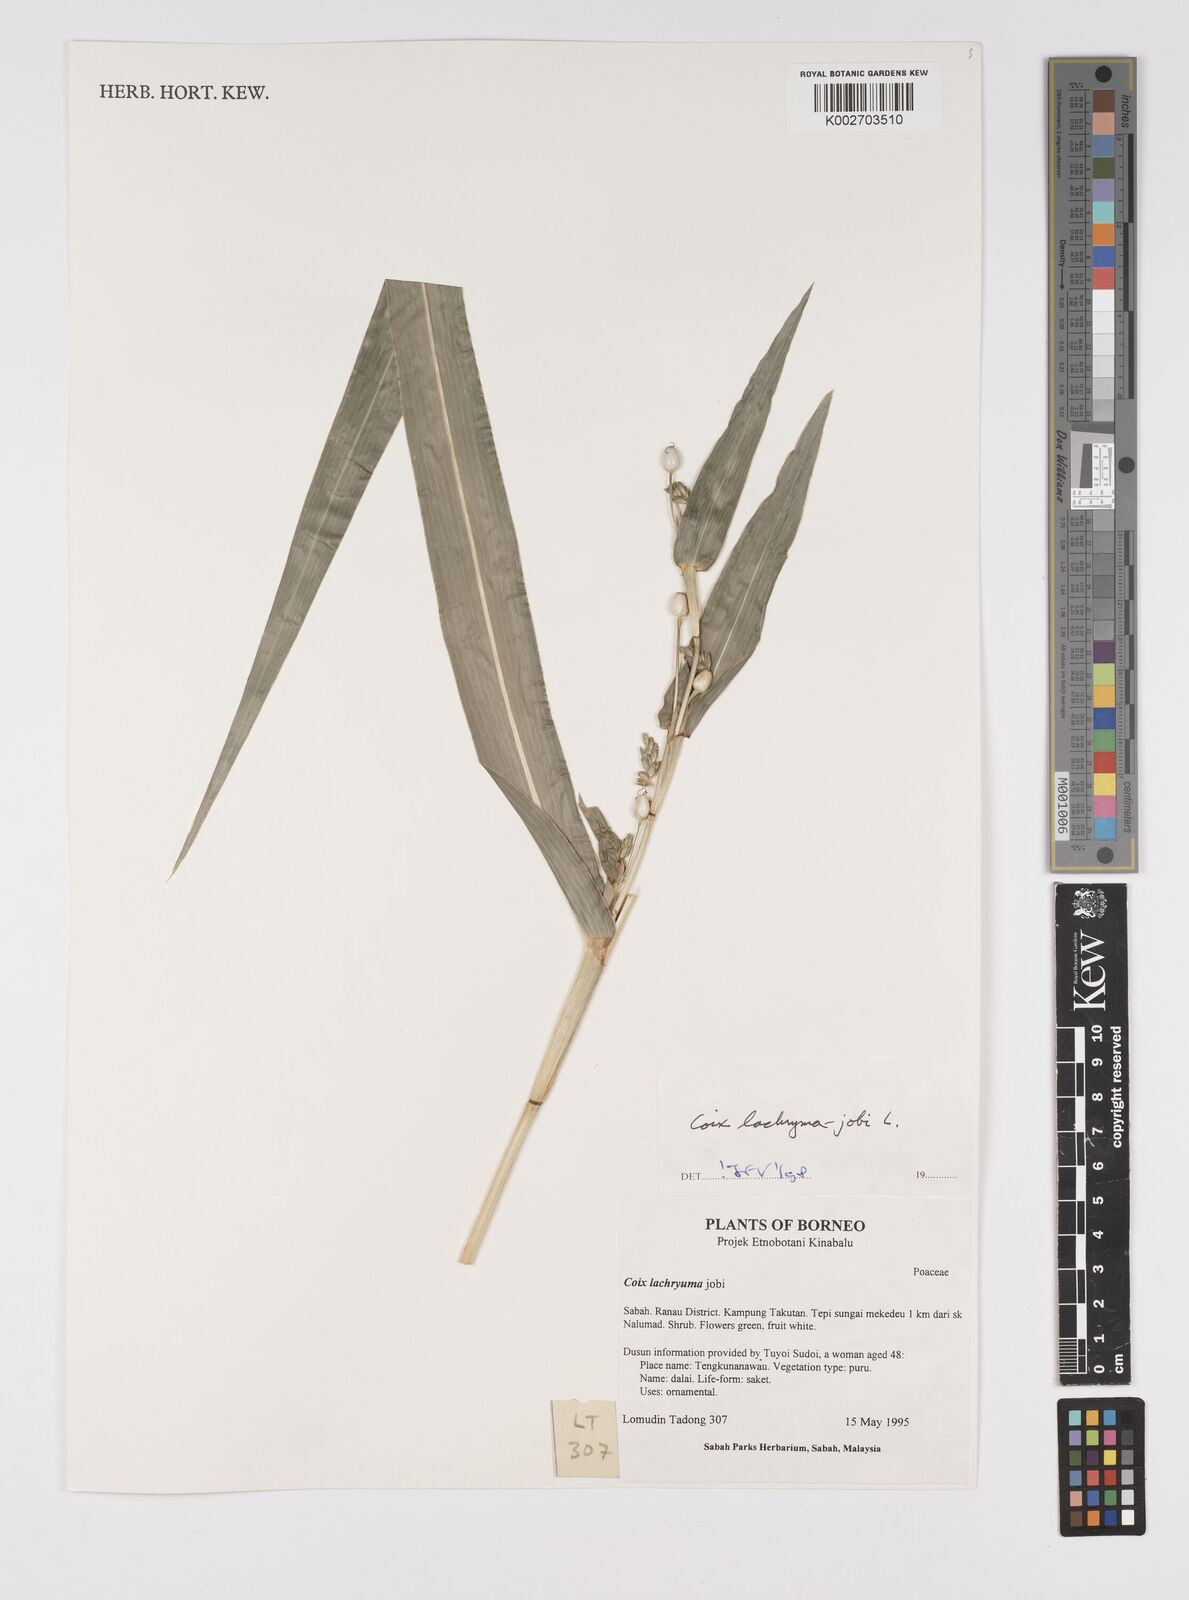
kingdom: Plantae
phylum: Tracheophyta
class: Liliopsida
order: Poales
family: Poaceae
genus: Coix
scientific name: Coix lacryma-jobi
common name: Job's tears
